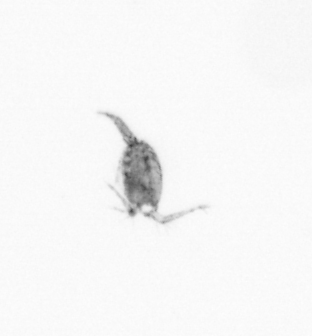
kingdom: Animalia
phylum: Arthropoda
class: Copepoda
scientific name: Copepoda
